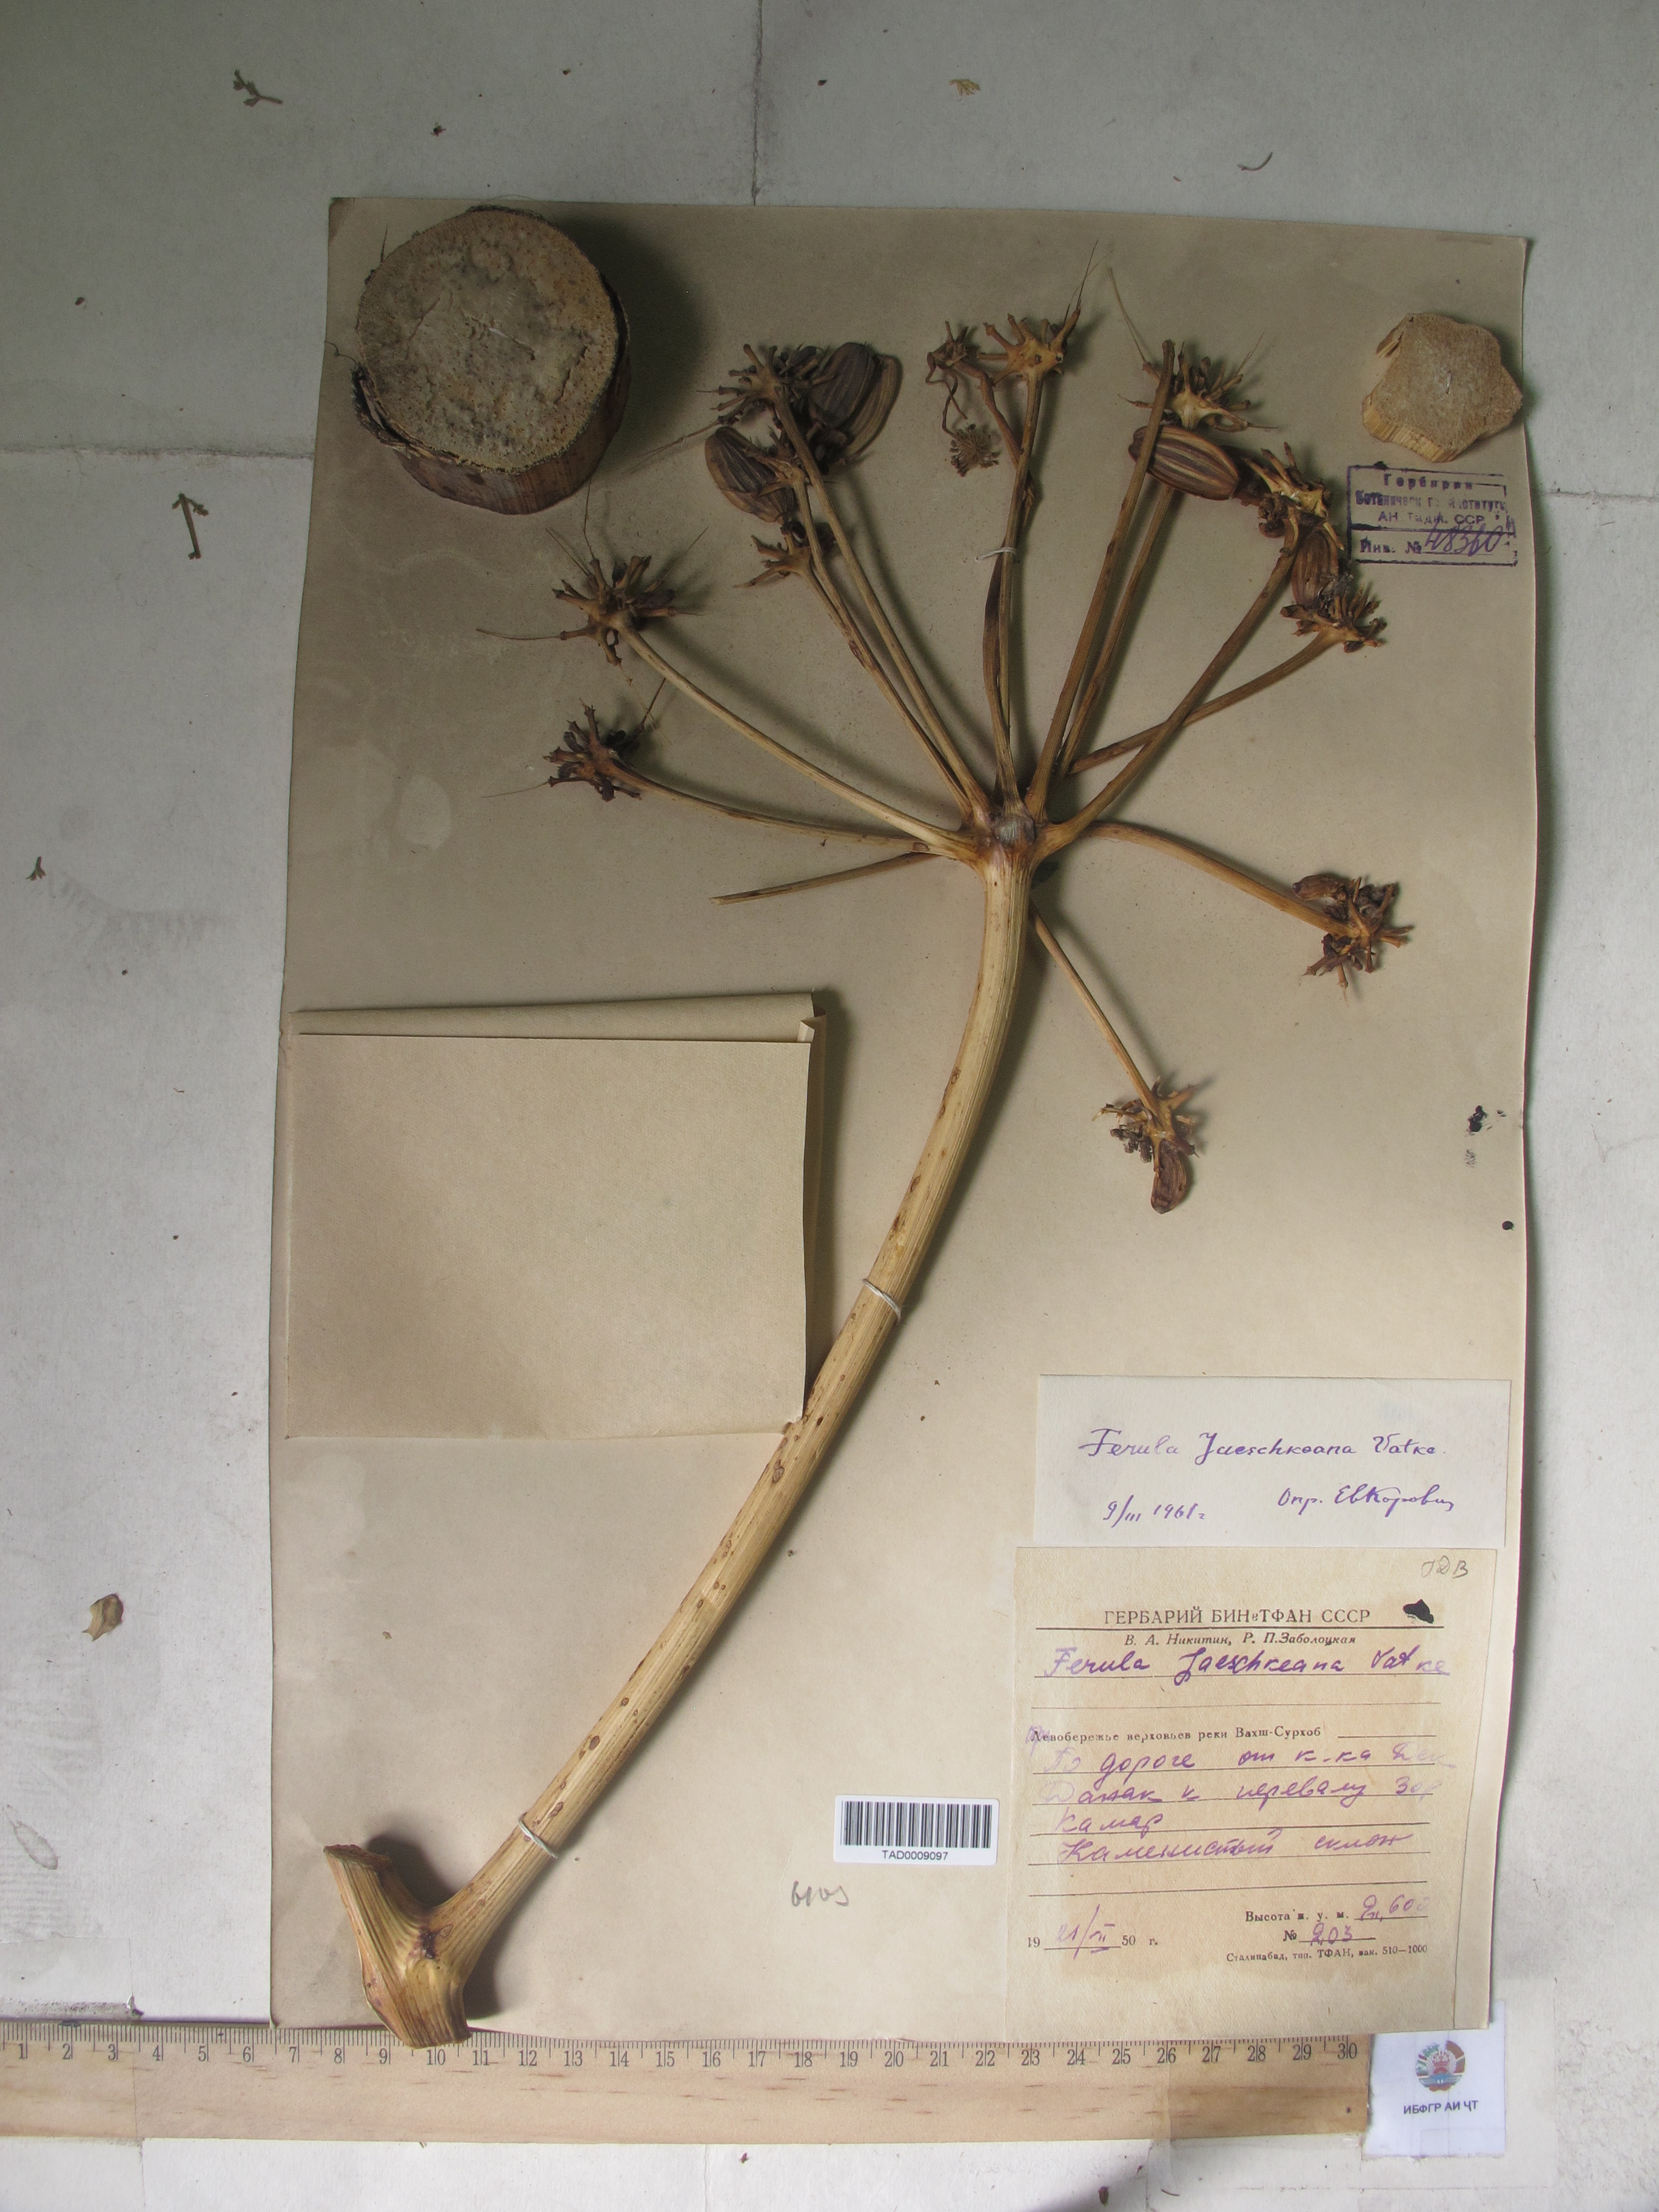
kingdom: Plantae
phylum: Tracheophyta
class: Magnoliopsida
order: Apiales
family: Apiaceae
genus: Ferula
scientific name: Ferula jaeschkeana
